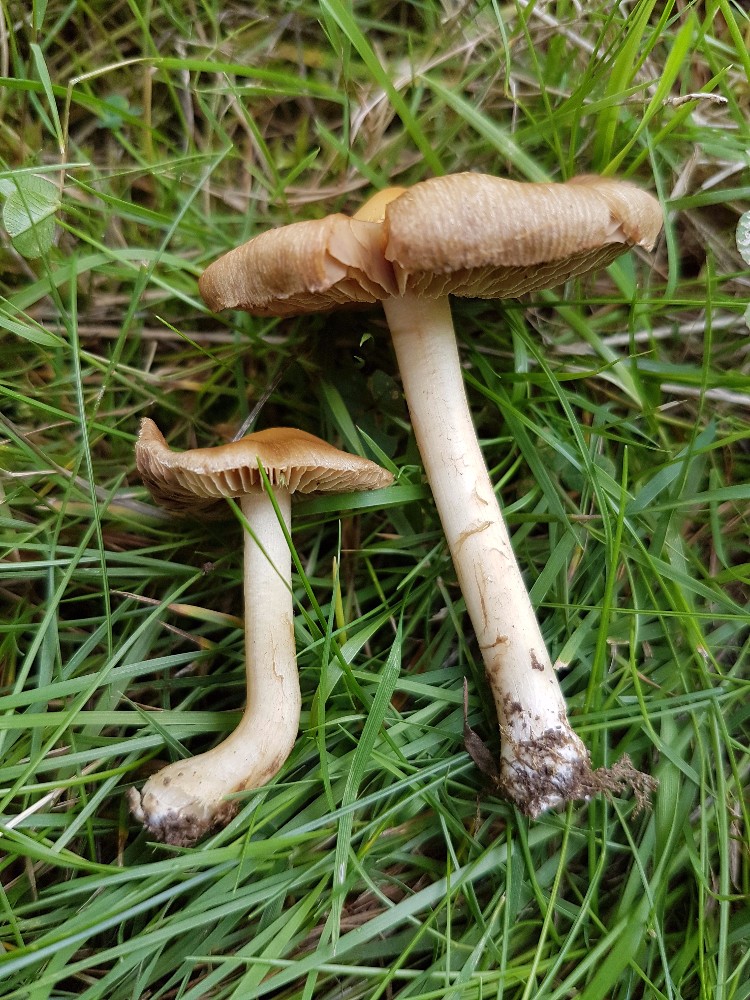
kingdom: Fungi
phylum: Basidiomycota
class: Agaricomycetes
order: Agaricales
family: Inocybaceae
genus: Inocybe
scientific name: Inocybe
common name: trævlhat
